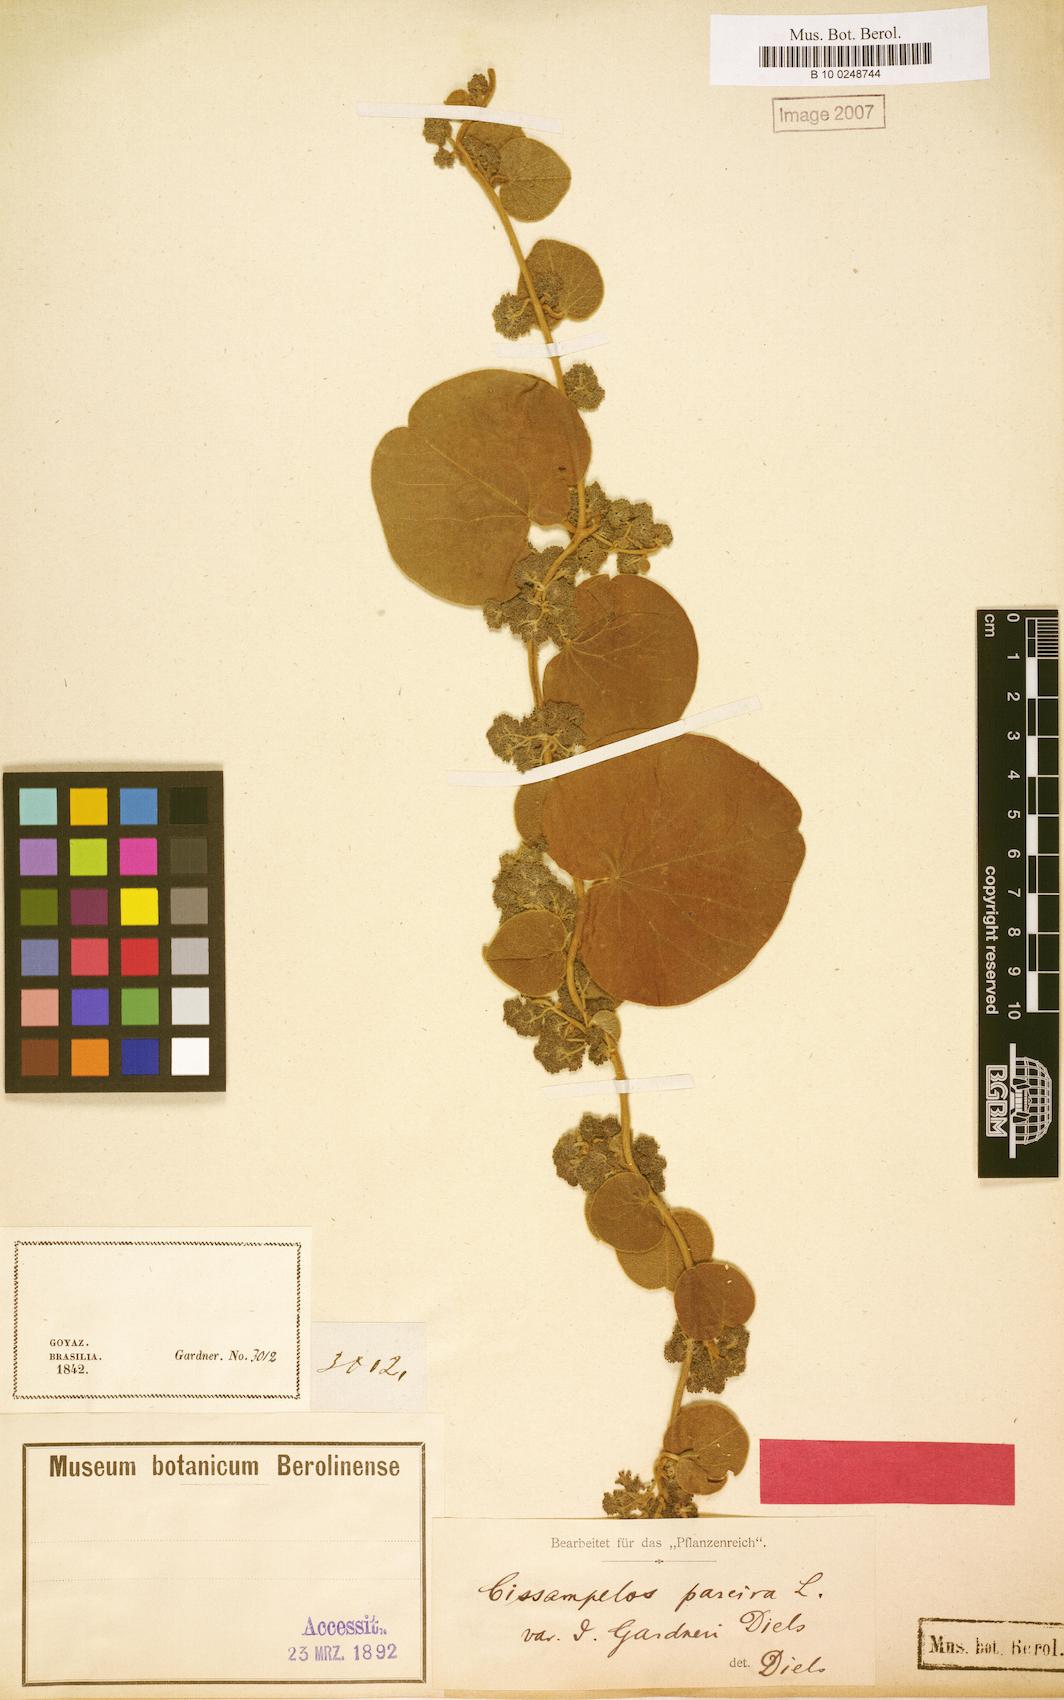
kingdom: Plantae
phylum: Tracheophyta
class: Magnoliopsida
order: Ranunculales
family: Menispermaceae
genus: Cissampelos
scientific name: Cissampelos pareira
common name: Velvetleaf
